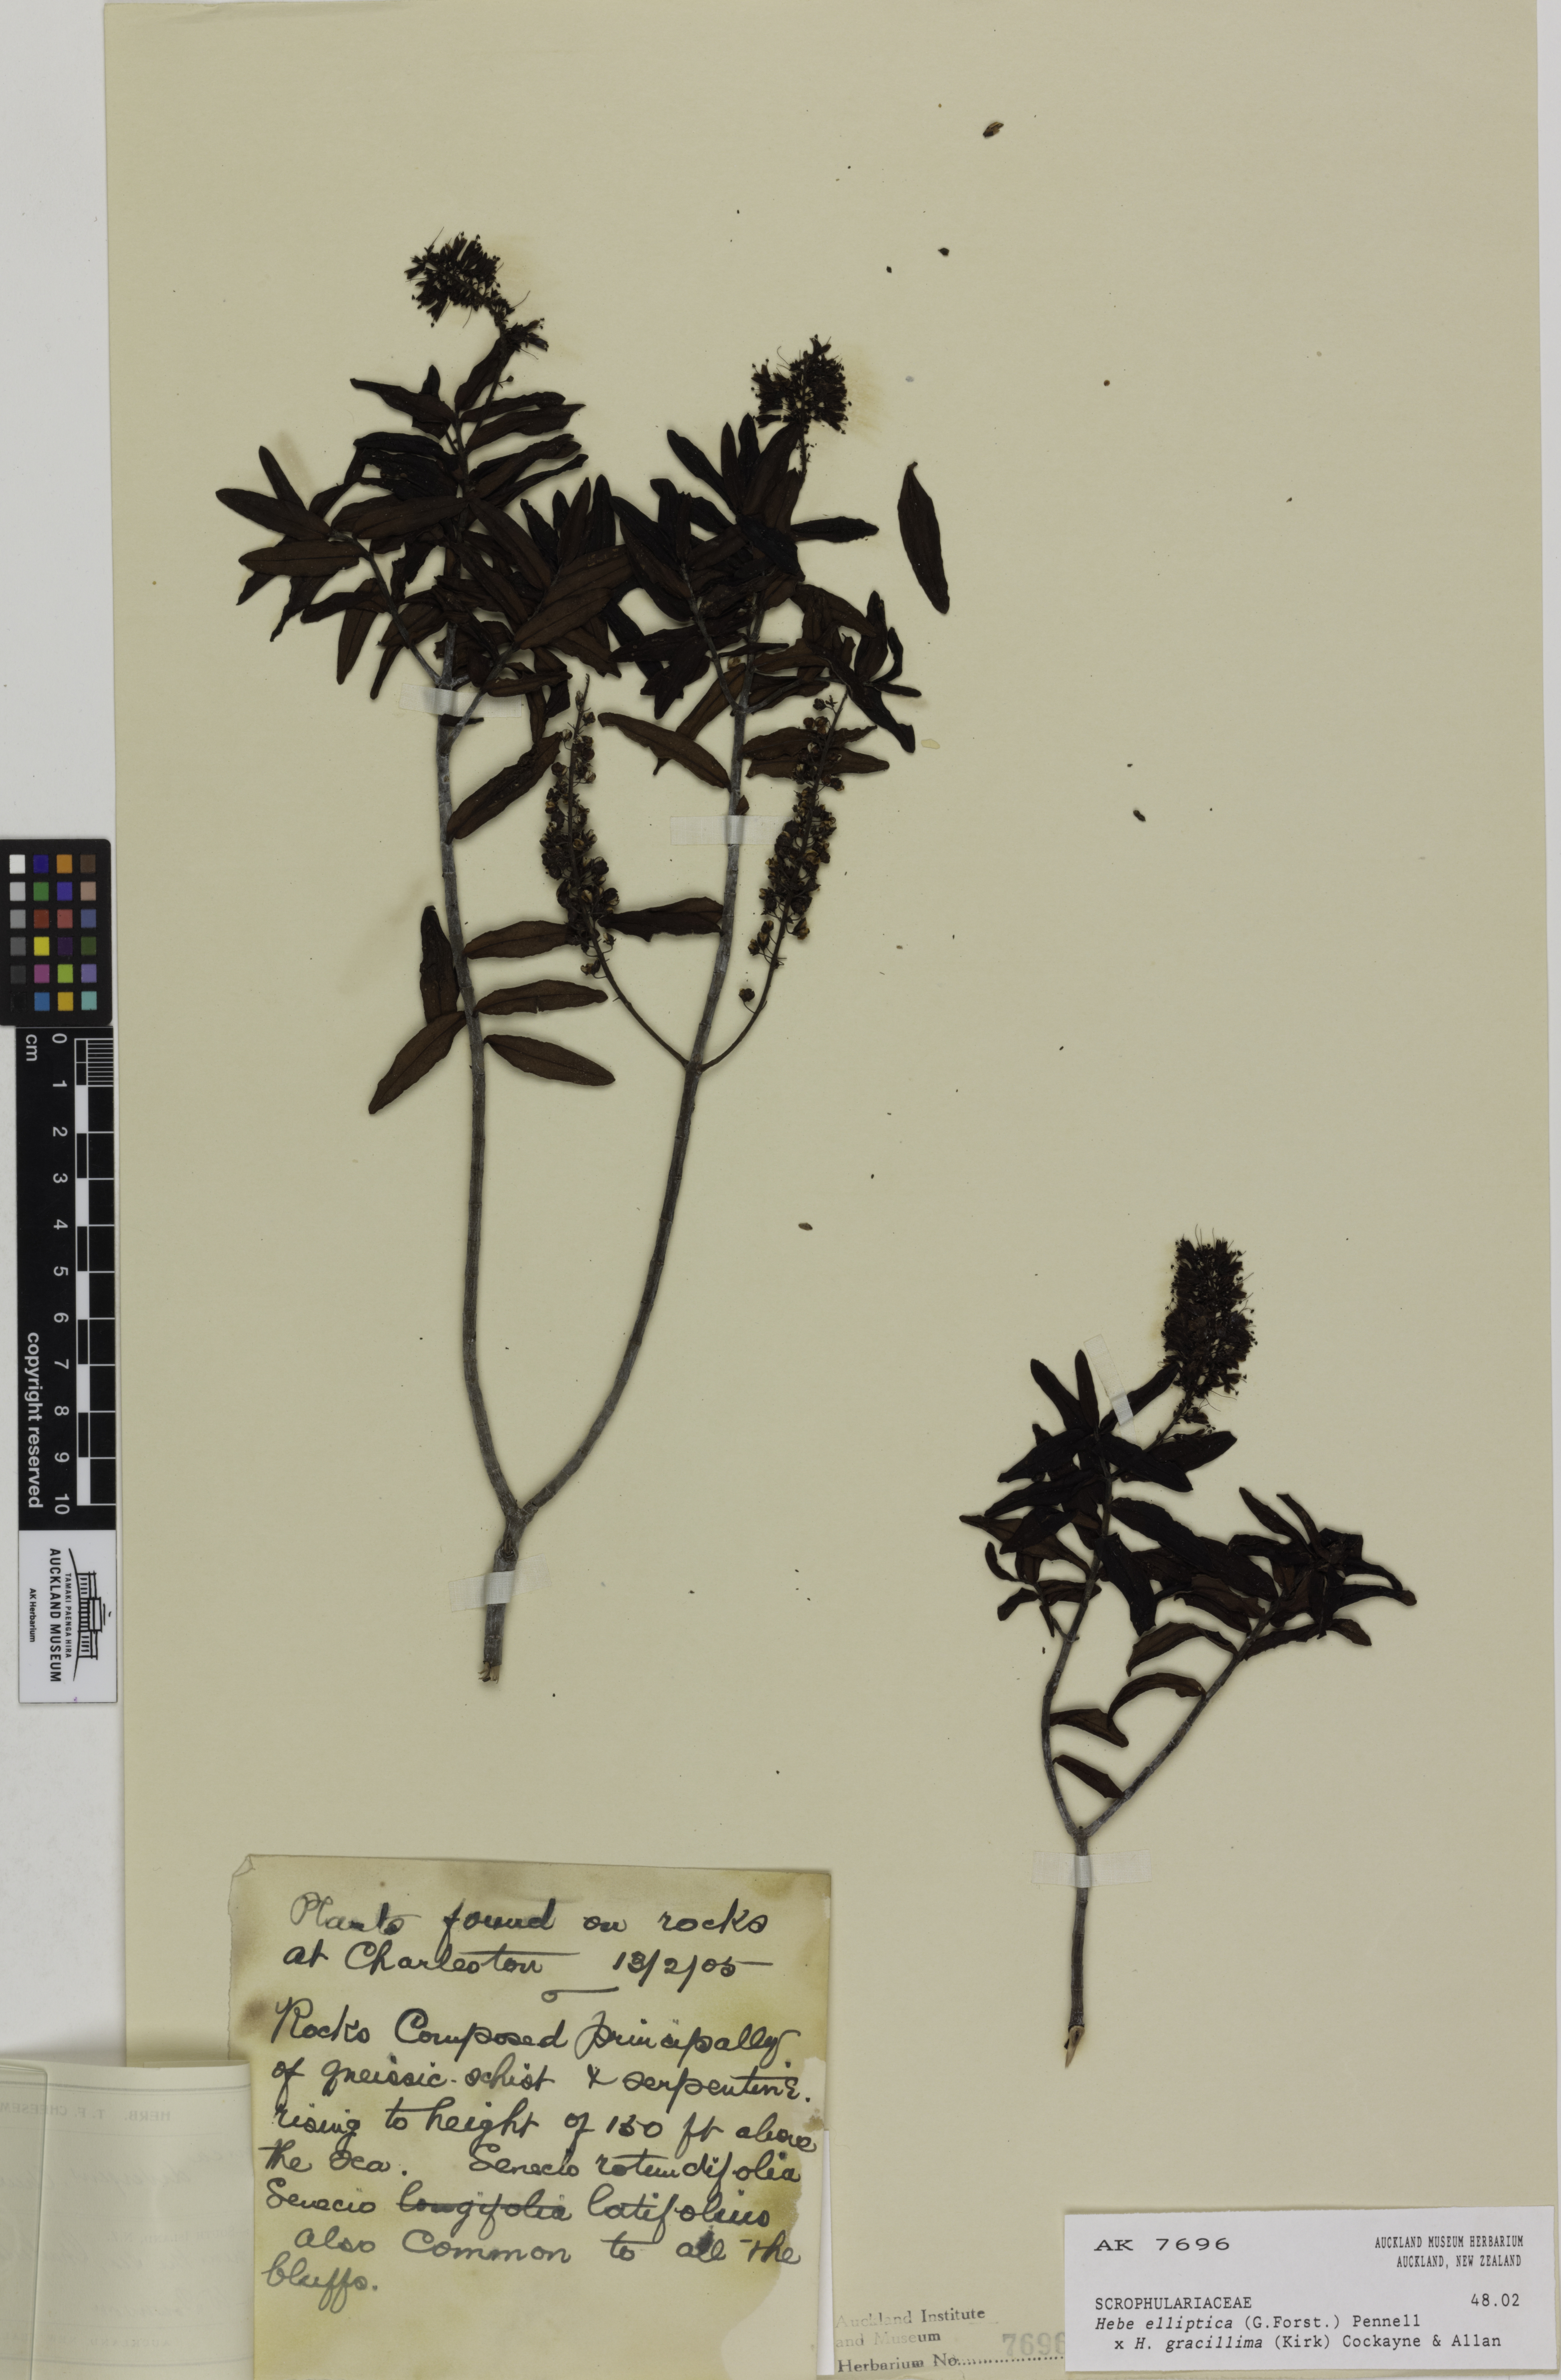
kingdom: Plantae
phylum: Tracheophyta
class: Magnoliopsida
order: Lamiales
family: Plantaginaceae
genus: Veronica
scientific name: Veronica
